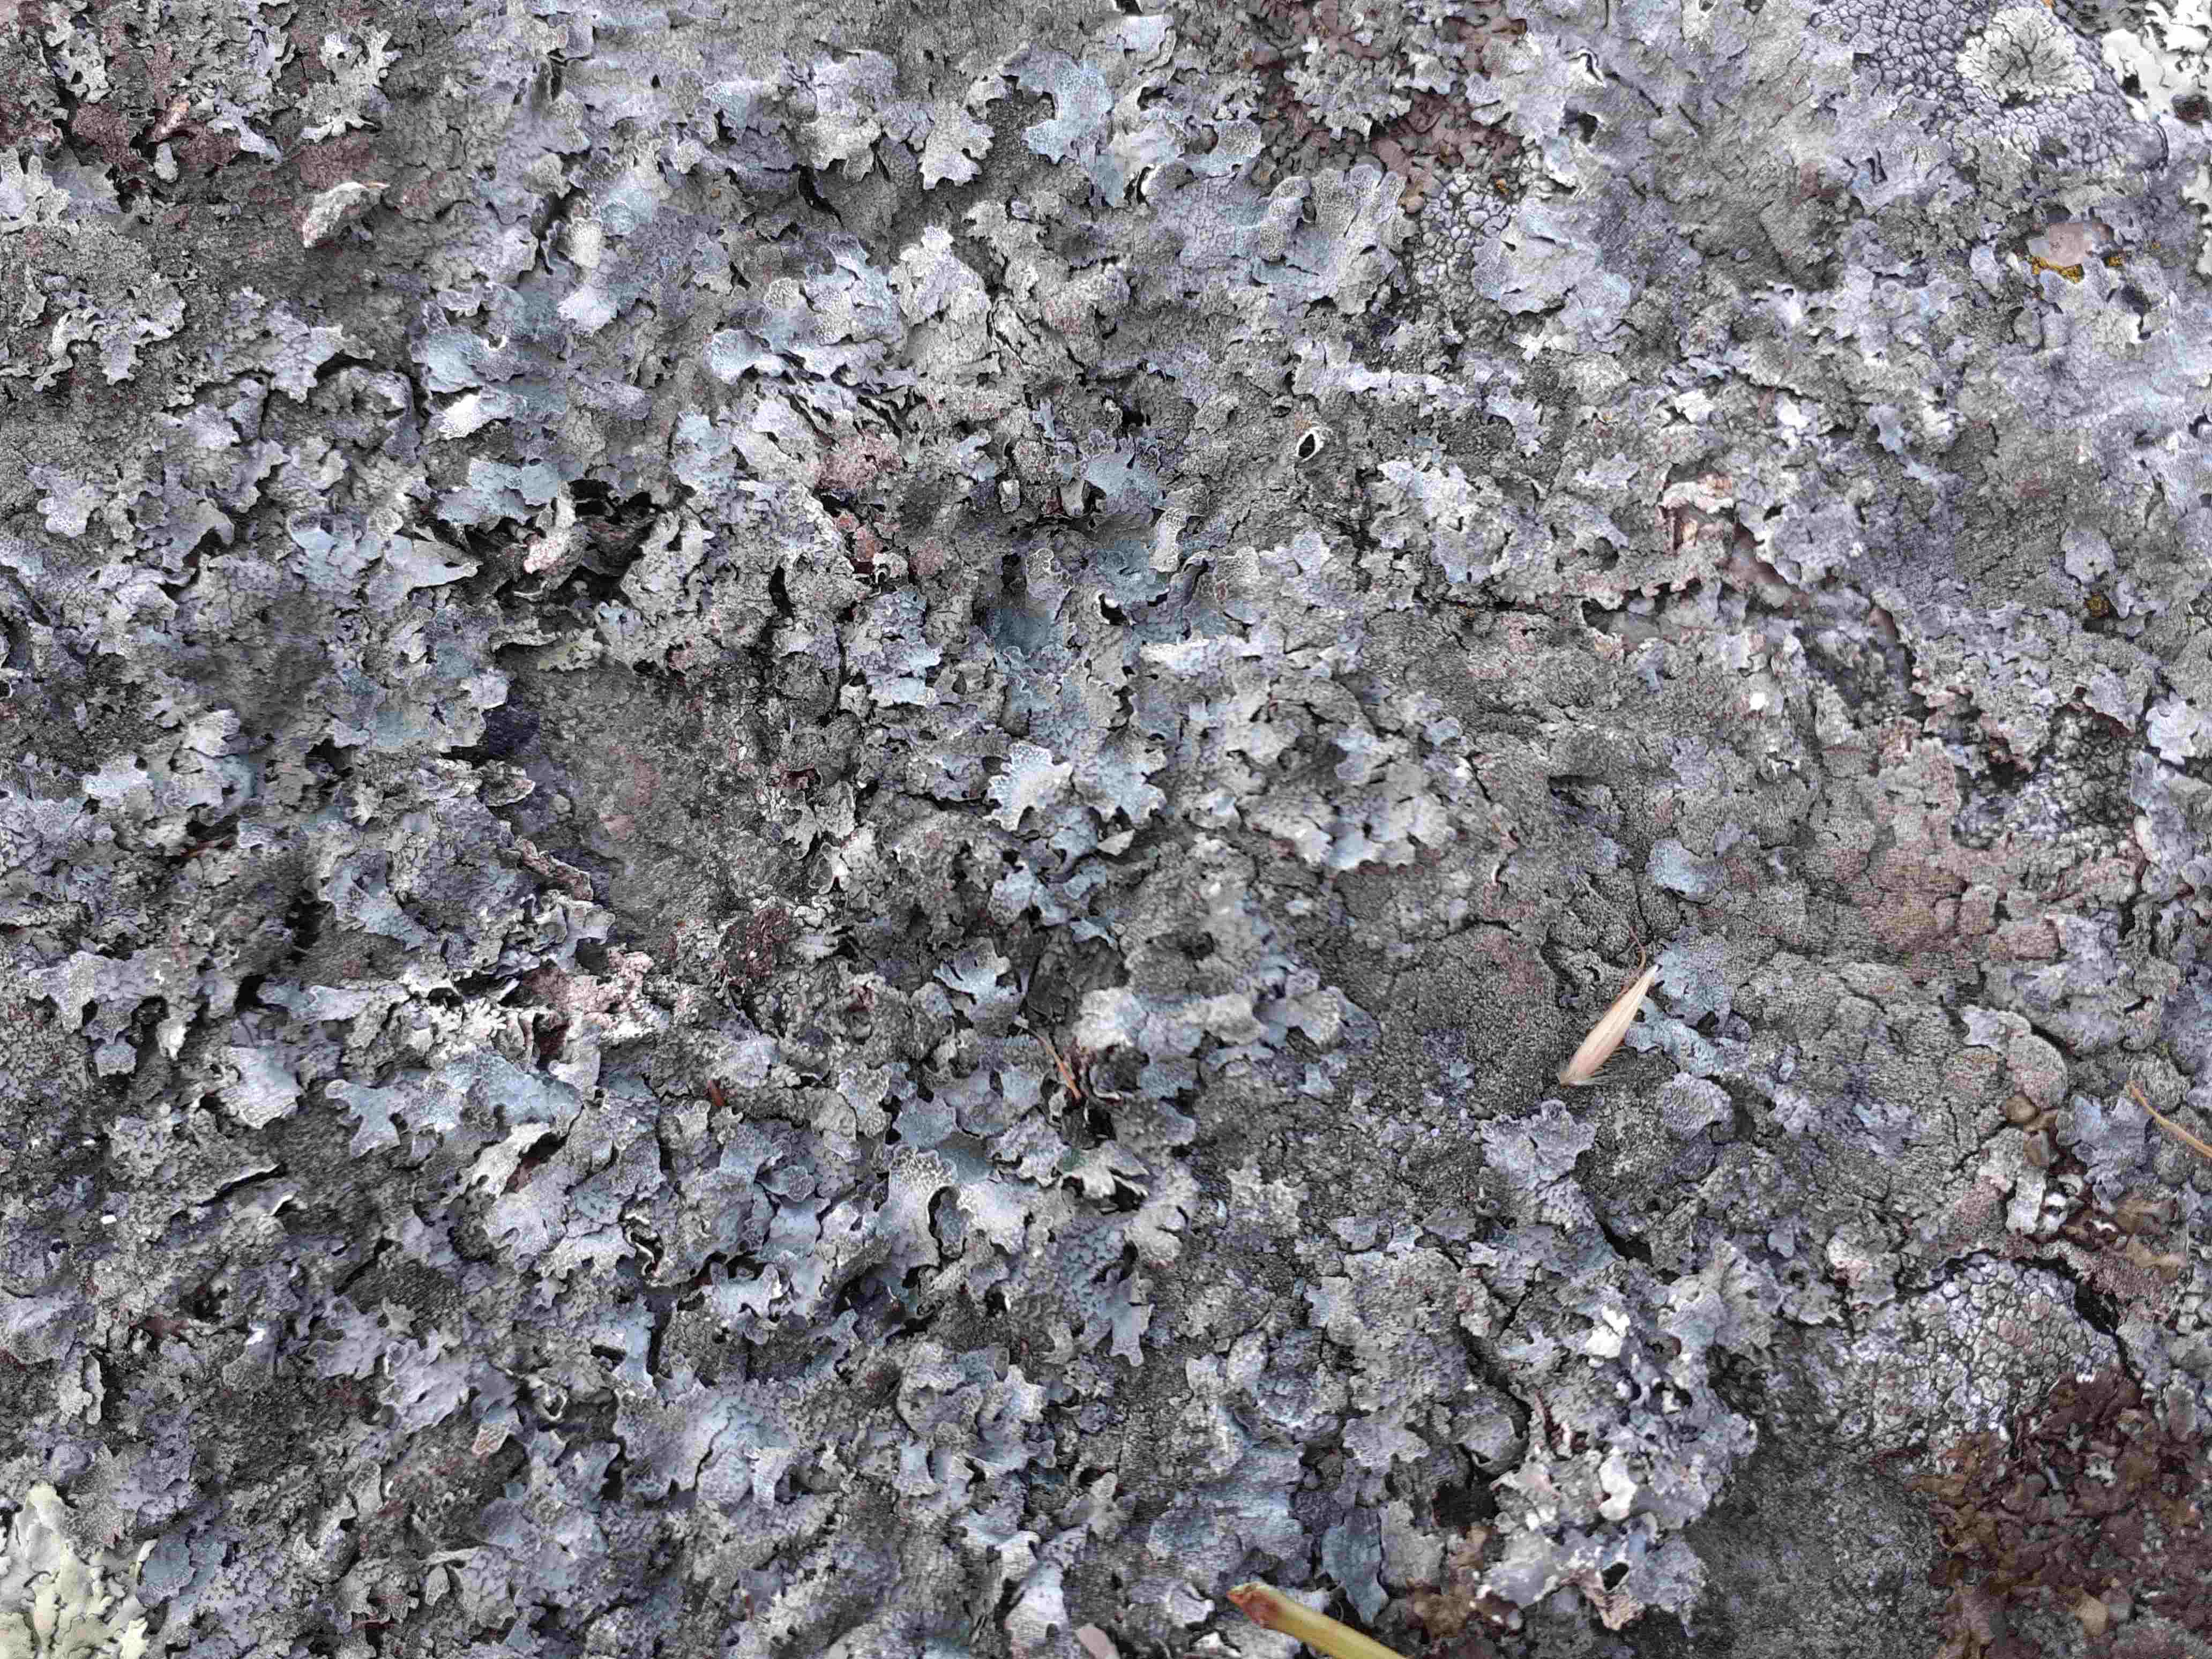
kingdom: Fungi
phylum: Ascomycota
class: Lecanoromycetes
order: Lecanorales
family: Parmeliaceae
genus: Parmelia
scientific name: Parmelia saxatilis
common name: farve-skållav
